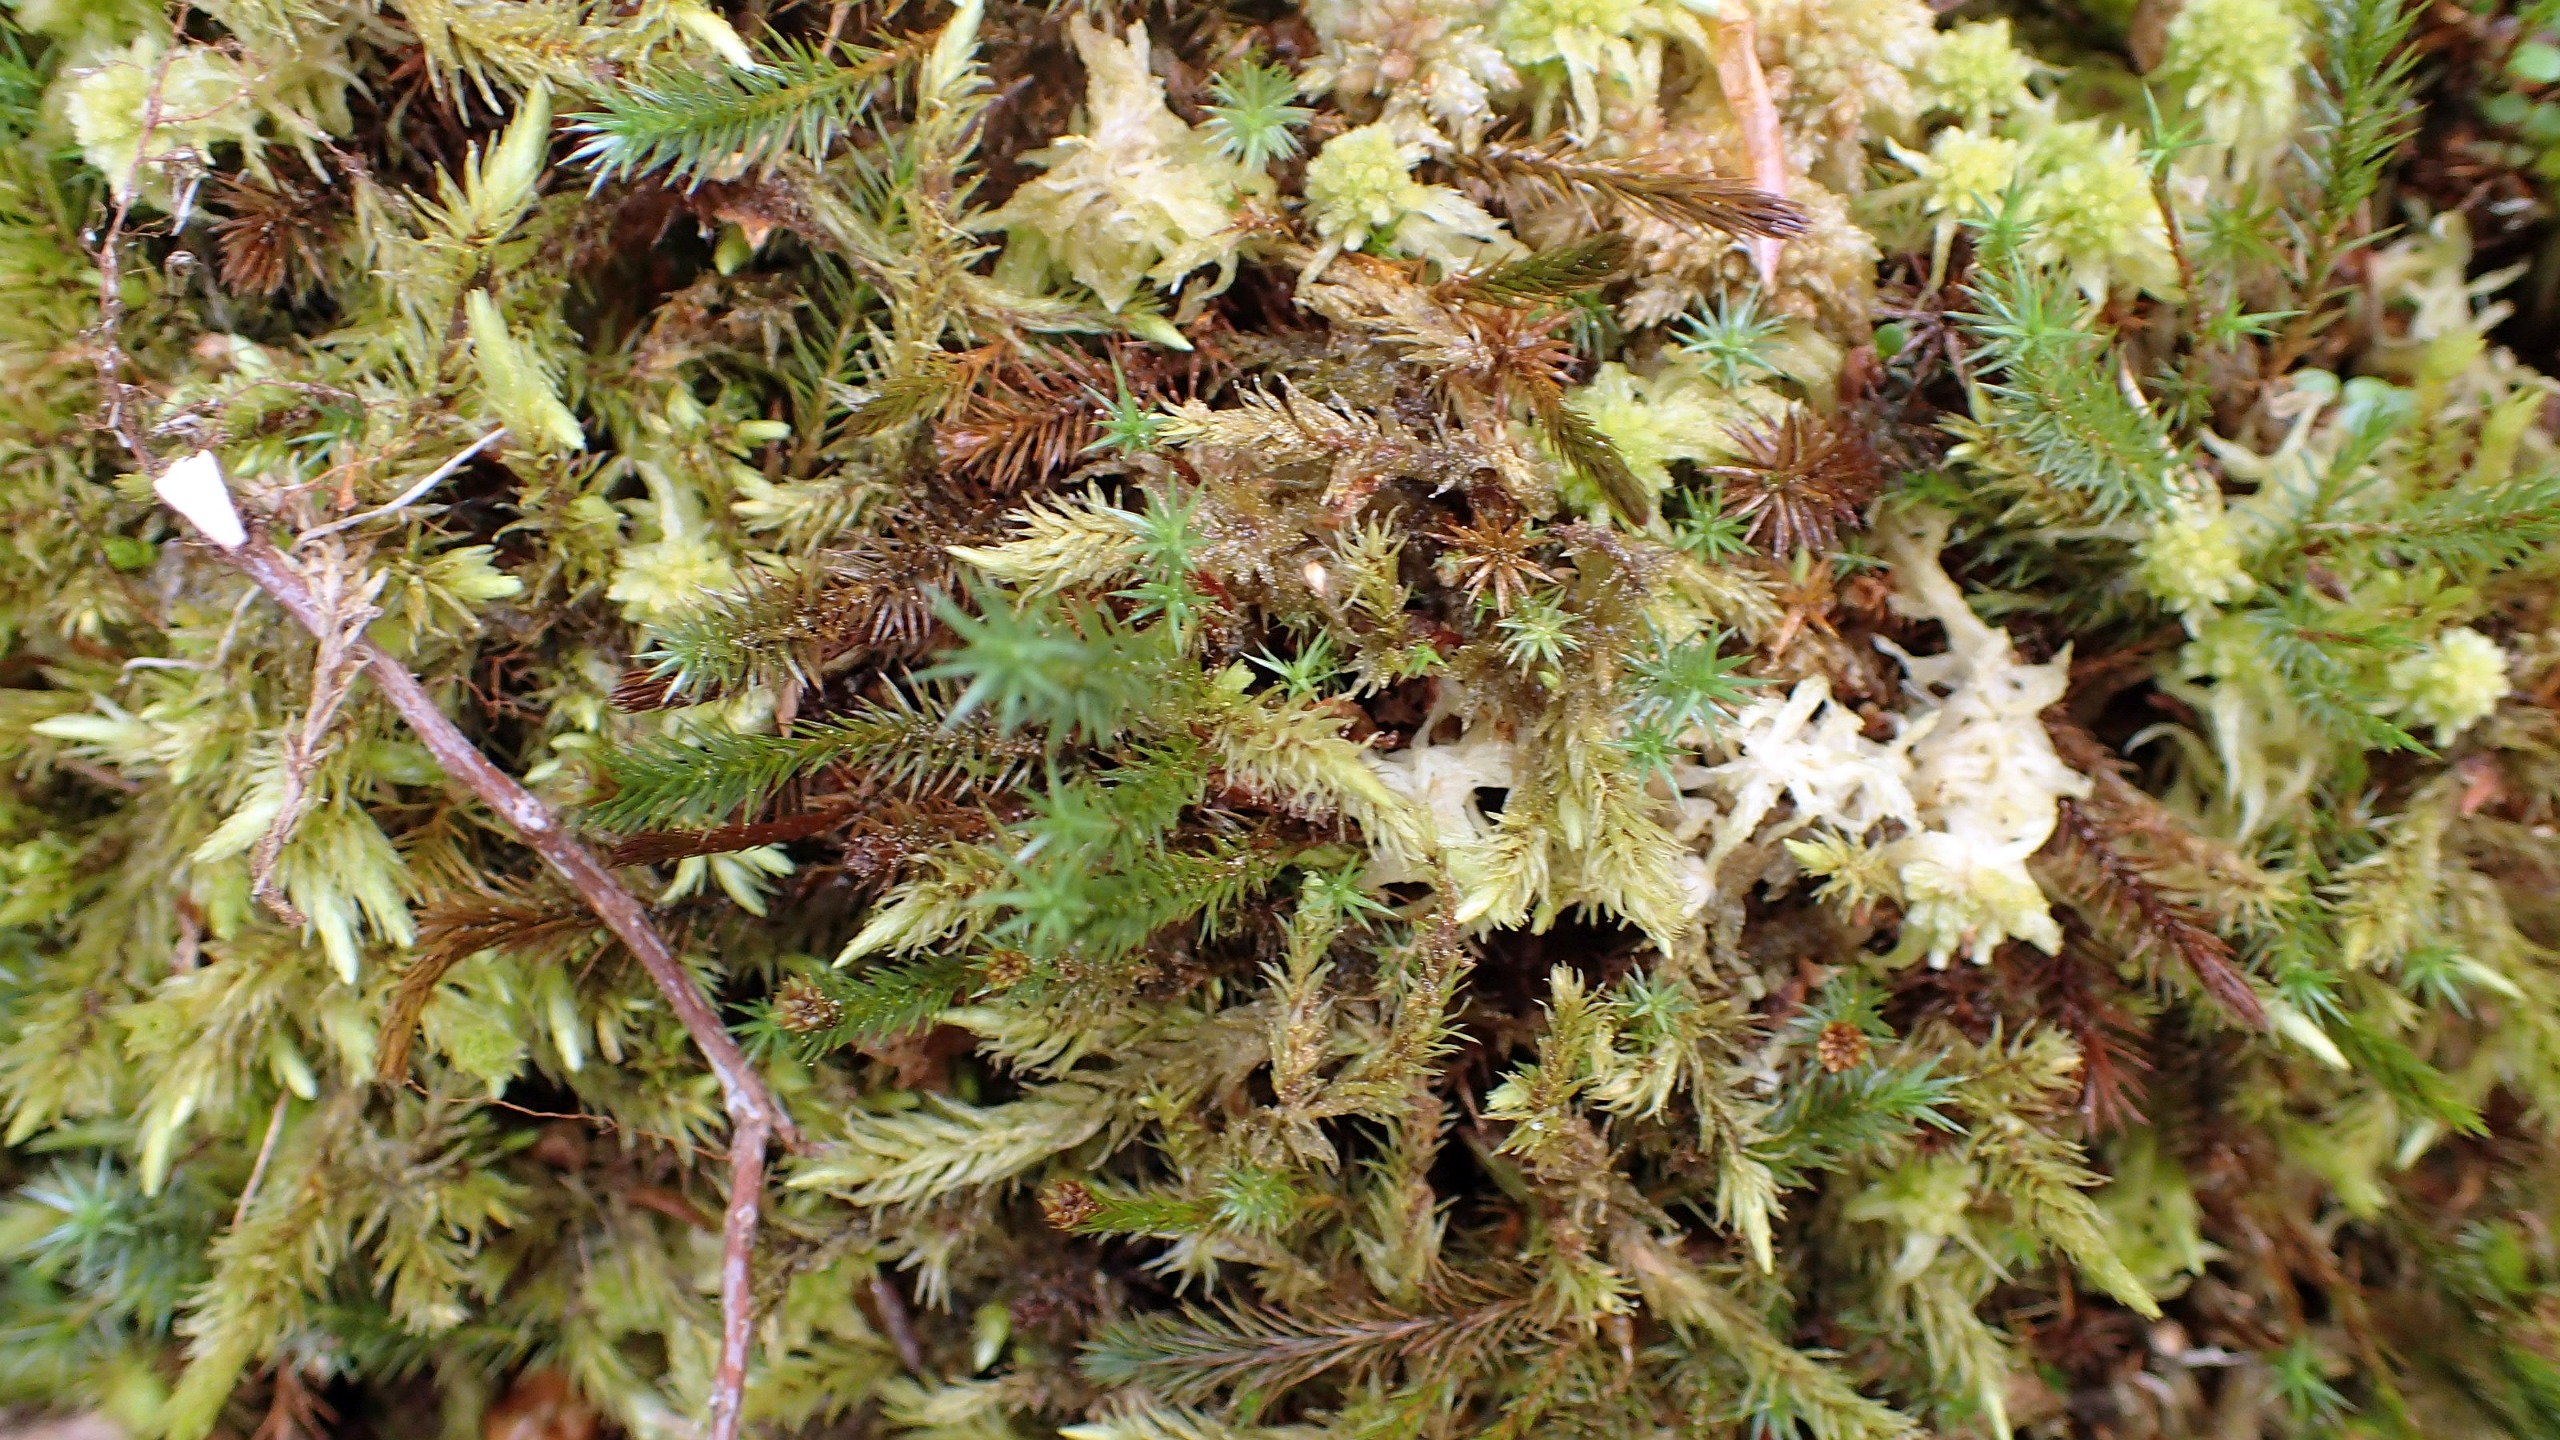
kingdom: Plantae
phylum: Bryophyta
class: Bryopsida
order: Aulacomniales
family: Aulacomniaceae
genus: Aulacomnium
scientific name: Aulacomnium palustre
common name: Almindelig filtmos
